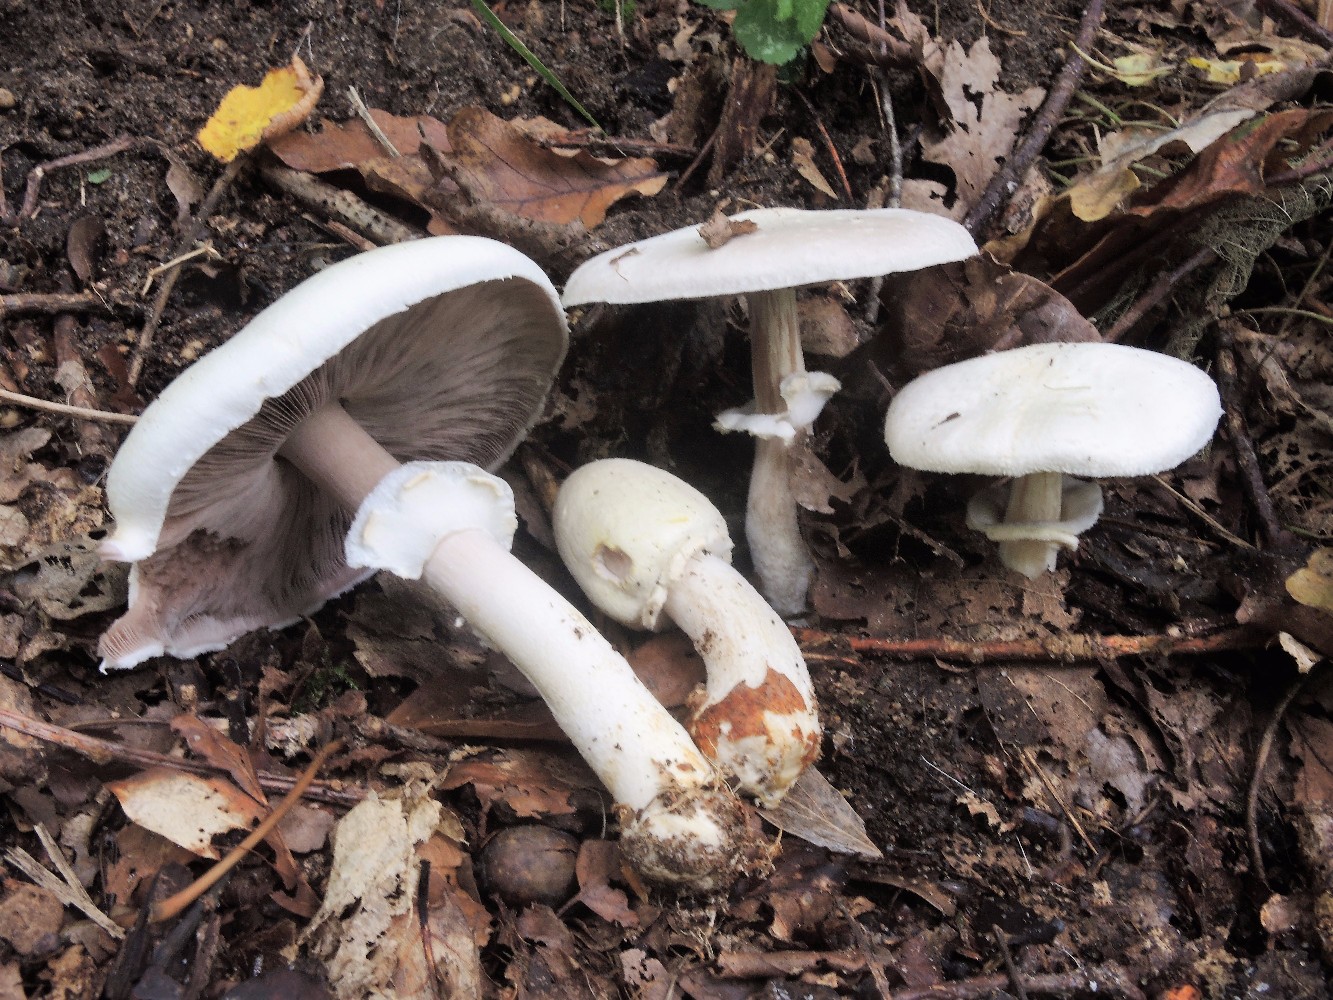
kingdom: Fungi
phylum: Basidiomycota
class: Agaricomycetes
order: Agaricales
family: Agaricaceae
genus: Agaricus
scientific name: Agaricus sylvicola
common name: gulhvid champignon
